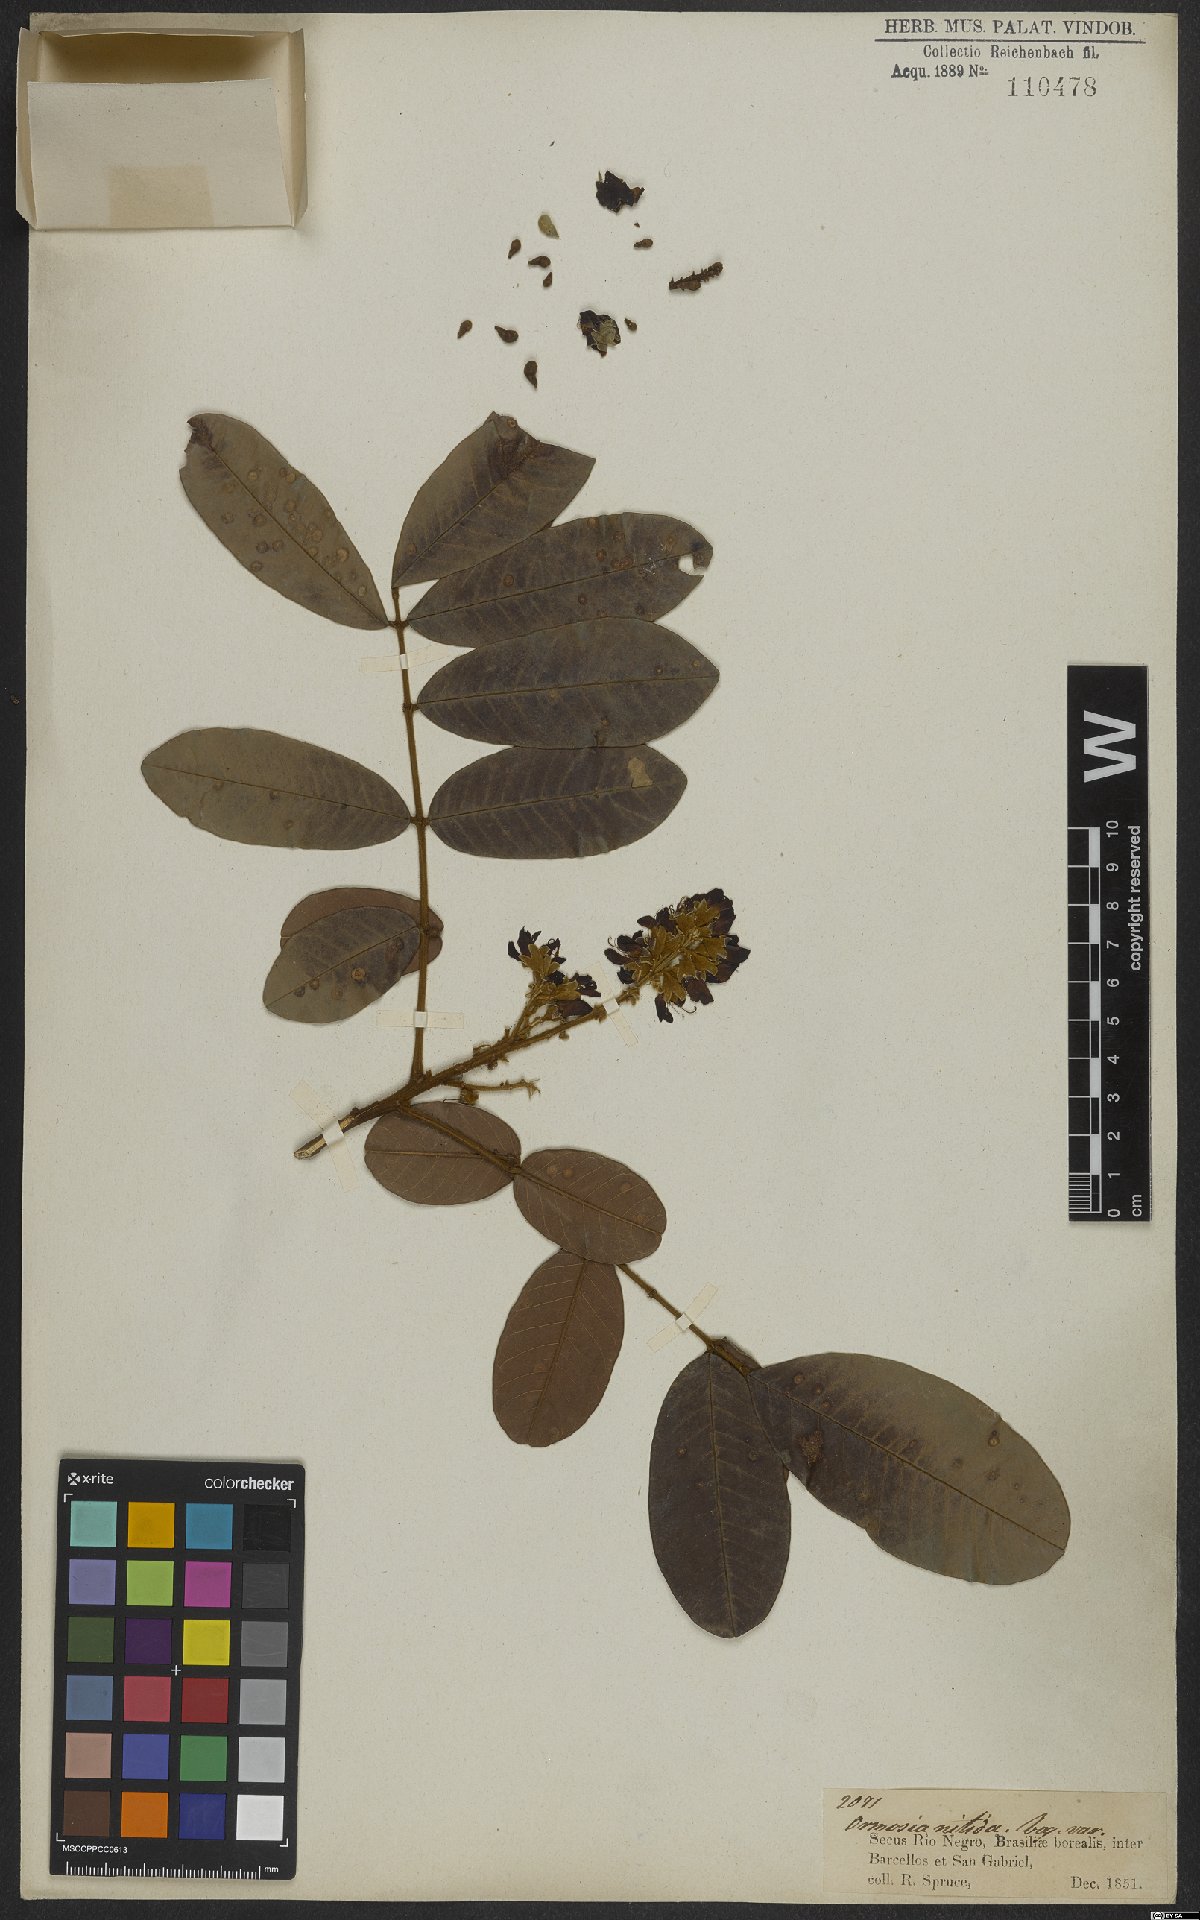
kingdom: Plantae
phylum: Tracheophyta
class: Magnoliopsida
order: Fabales
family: Fabaceae
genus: Ormosia
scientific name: Ormosia nitida
